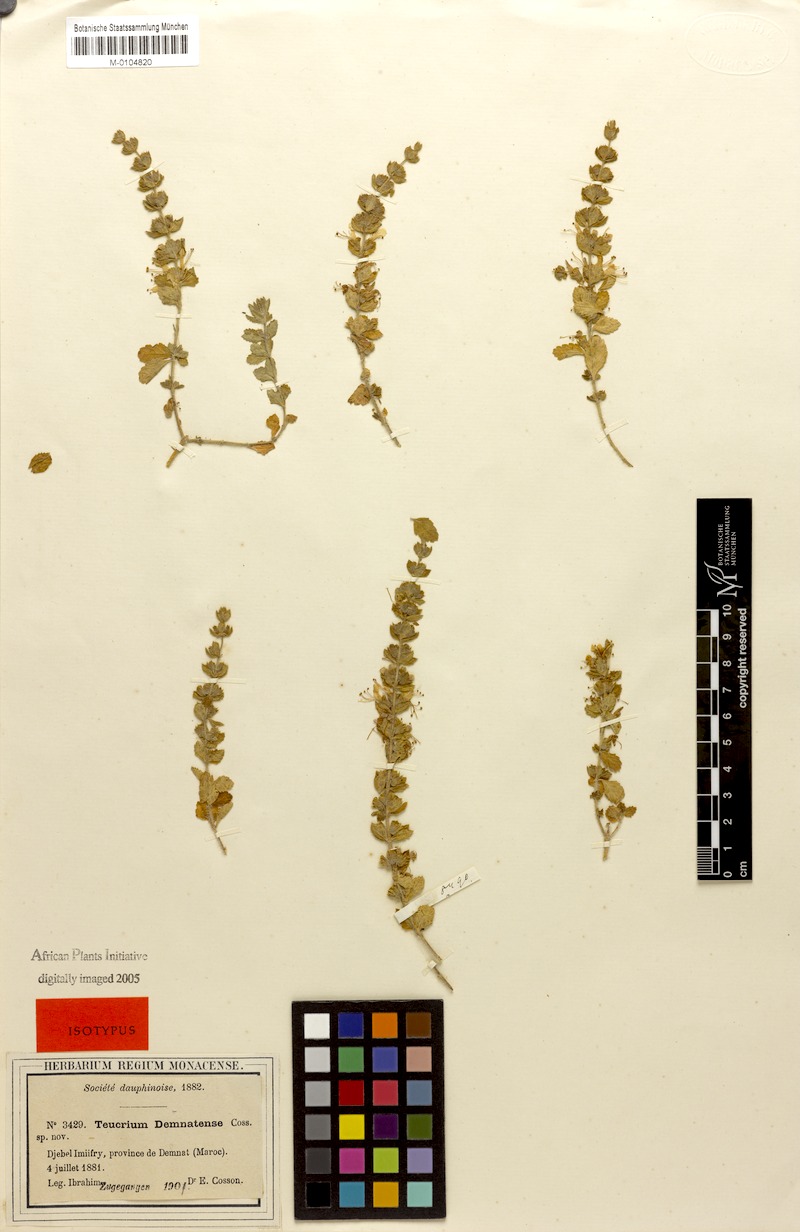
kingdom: Plantae
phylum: Tracheophyta
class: Magnoliopsida
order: Lamiales
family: Lamiaceae
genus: Teucrium
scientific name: Teucrium demnatense
